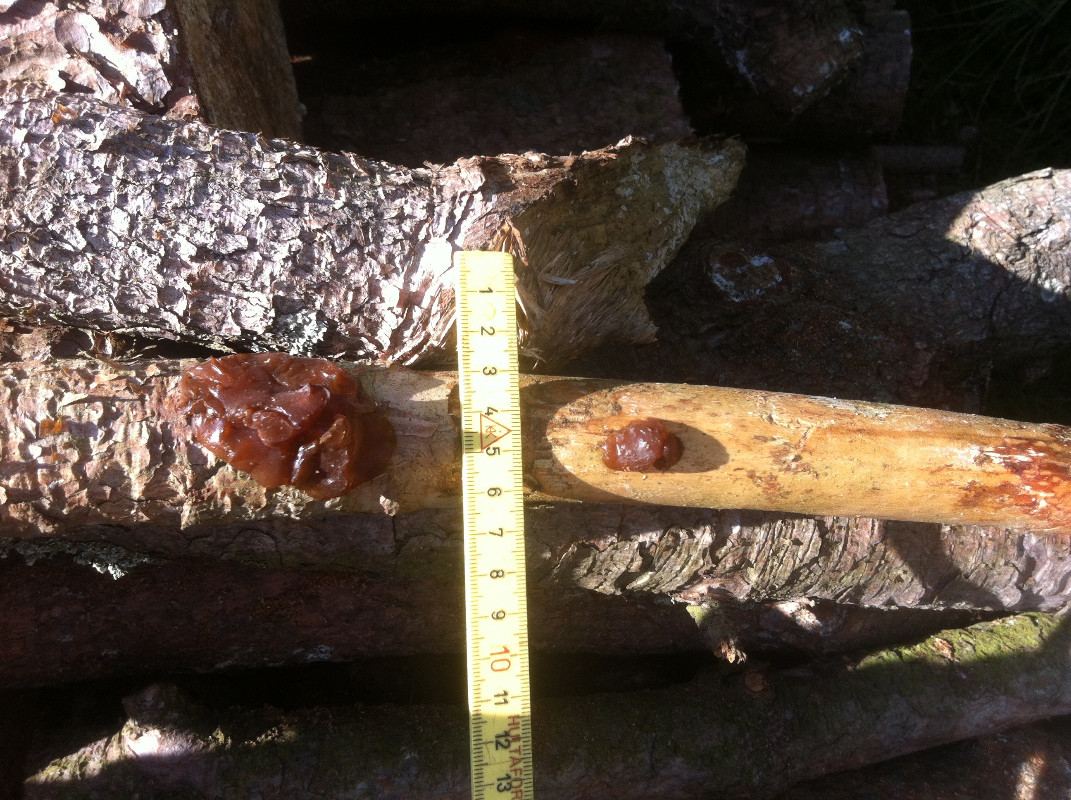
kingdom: Fungi
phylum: Basidiomycota
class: Agaricomycetes
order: Auriculariales
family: Auriculariaceae
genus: Exidia
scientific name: Exidia saccharina
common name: kandis-bævretop
